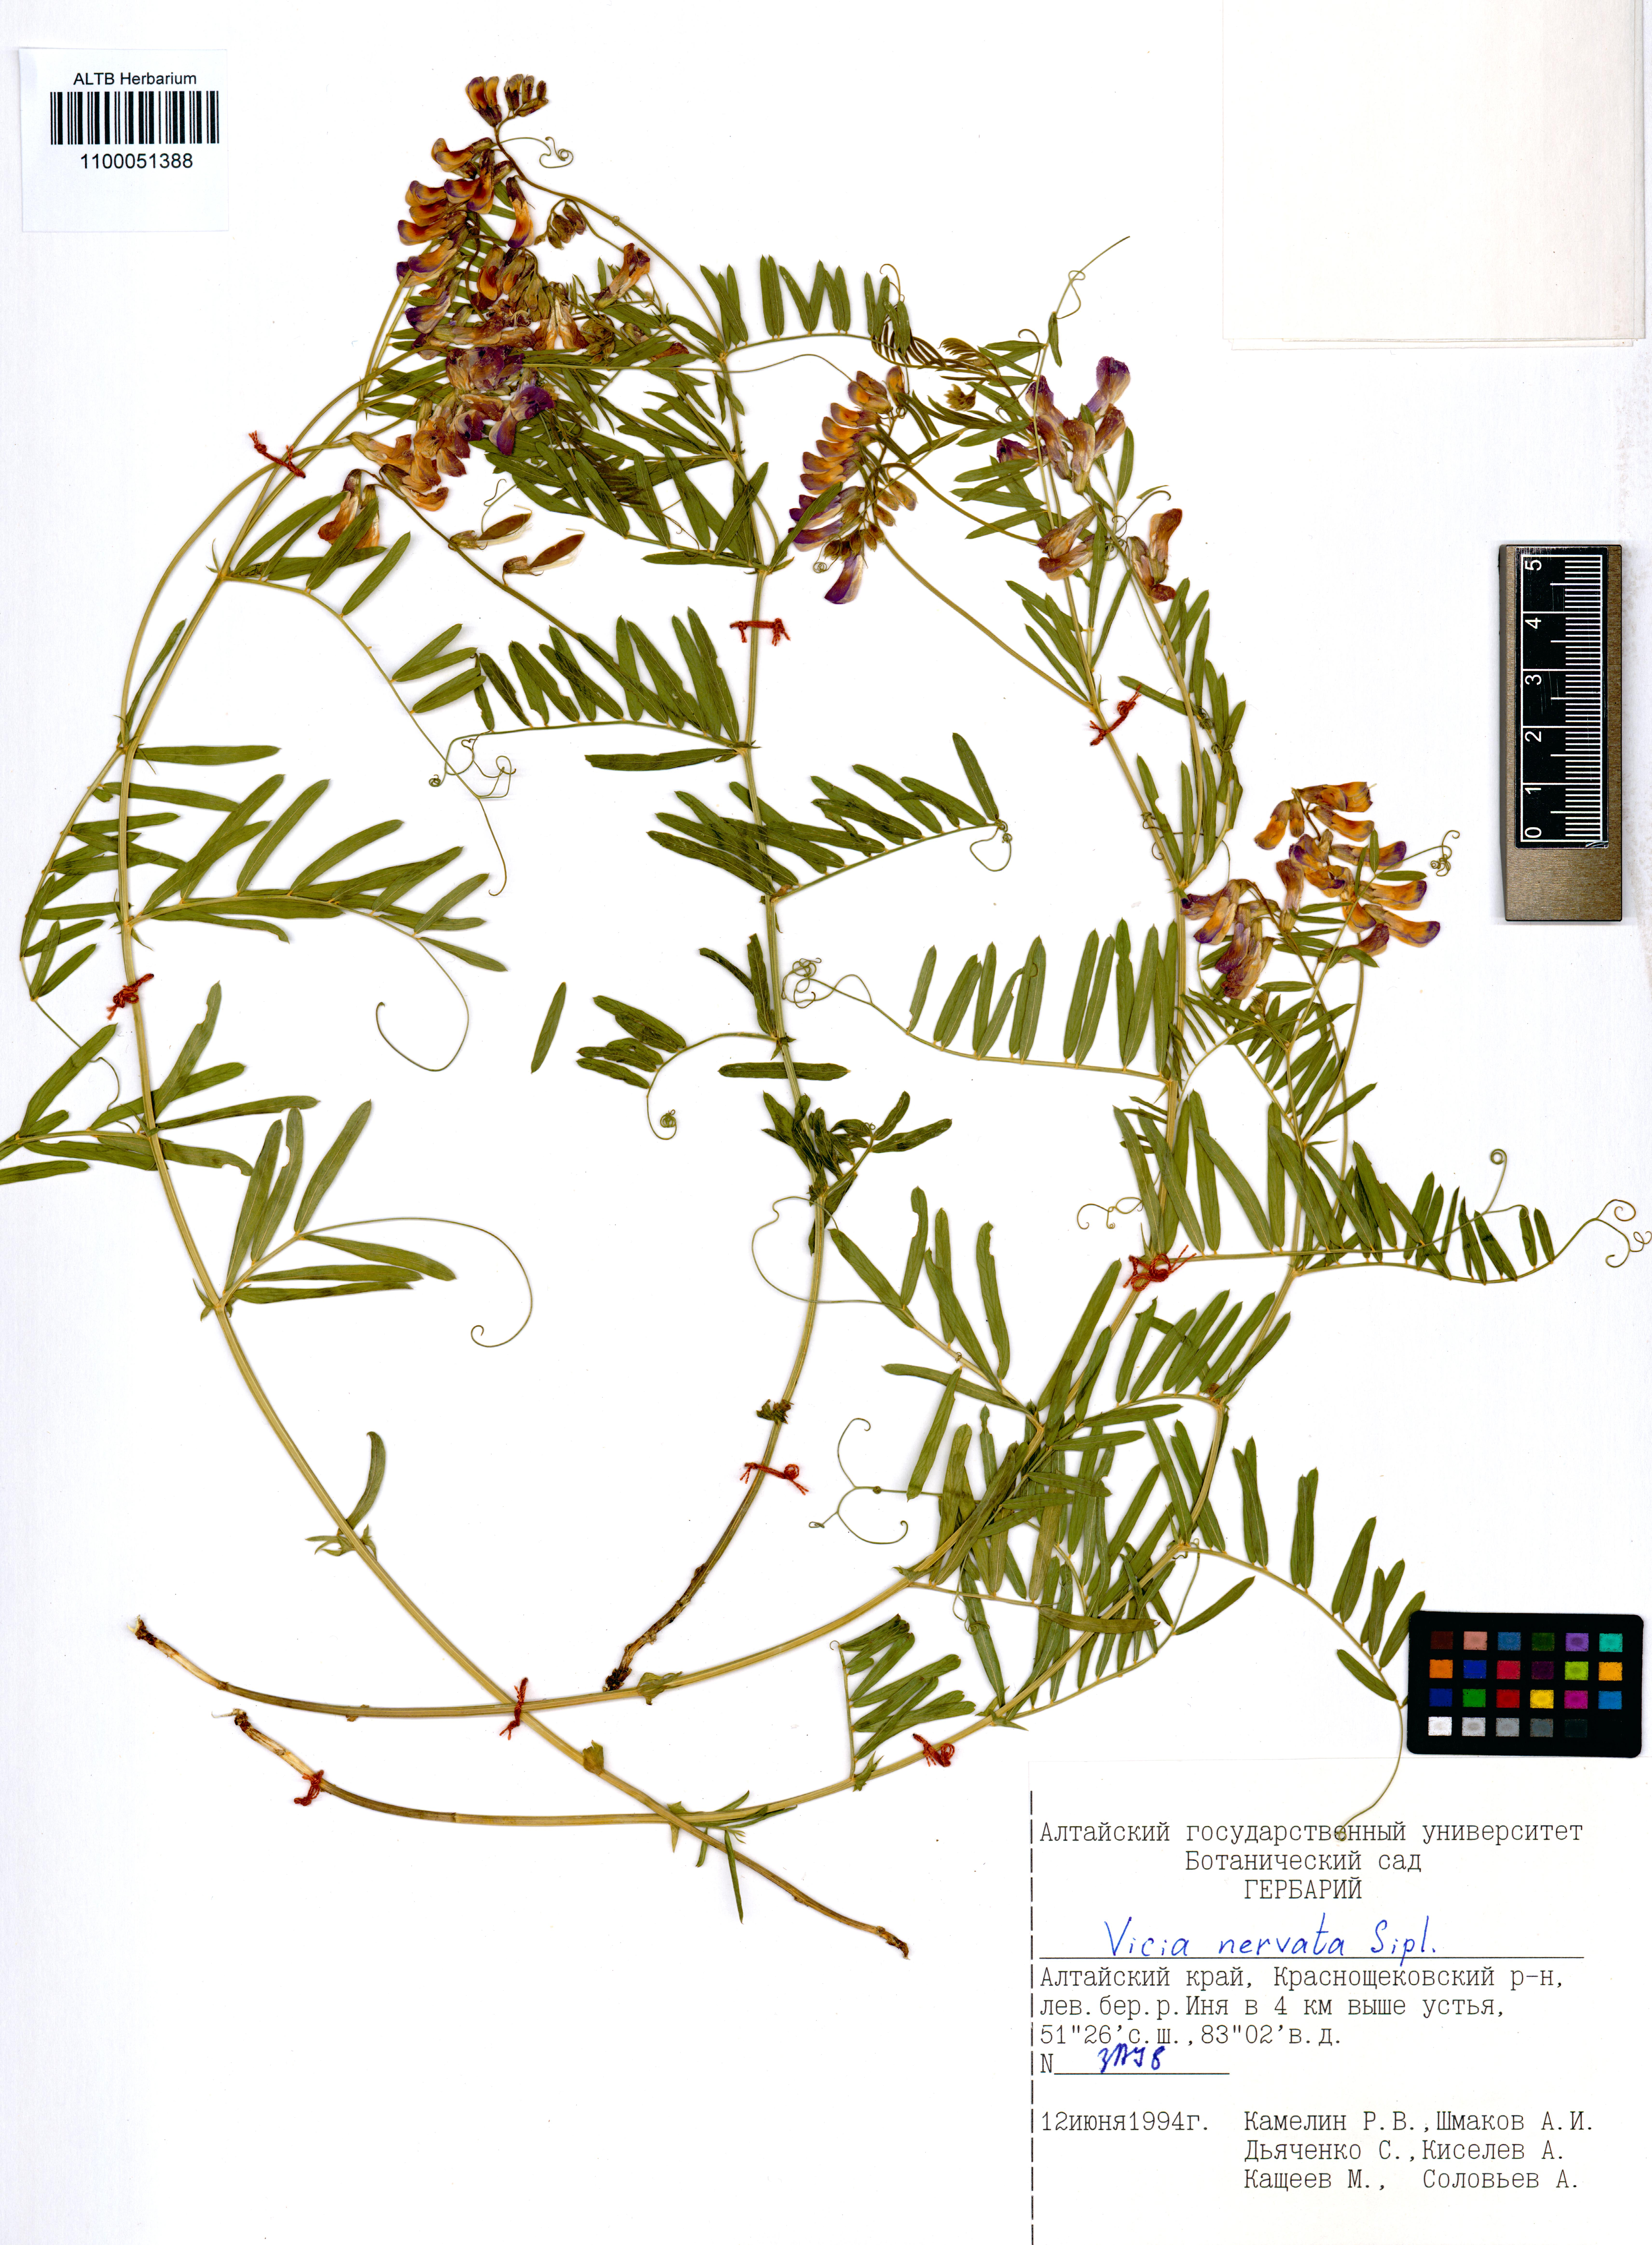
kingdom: Plantae
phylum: Tracheophyta
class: Magnoliopsida
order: Fabales
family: Fabaceae
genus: Vicia
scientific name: Vicia multicaulis
